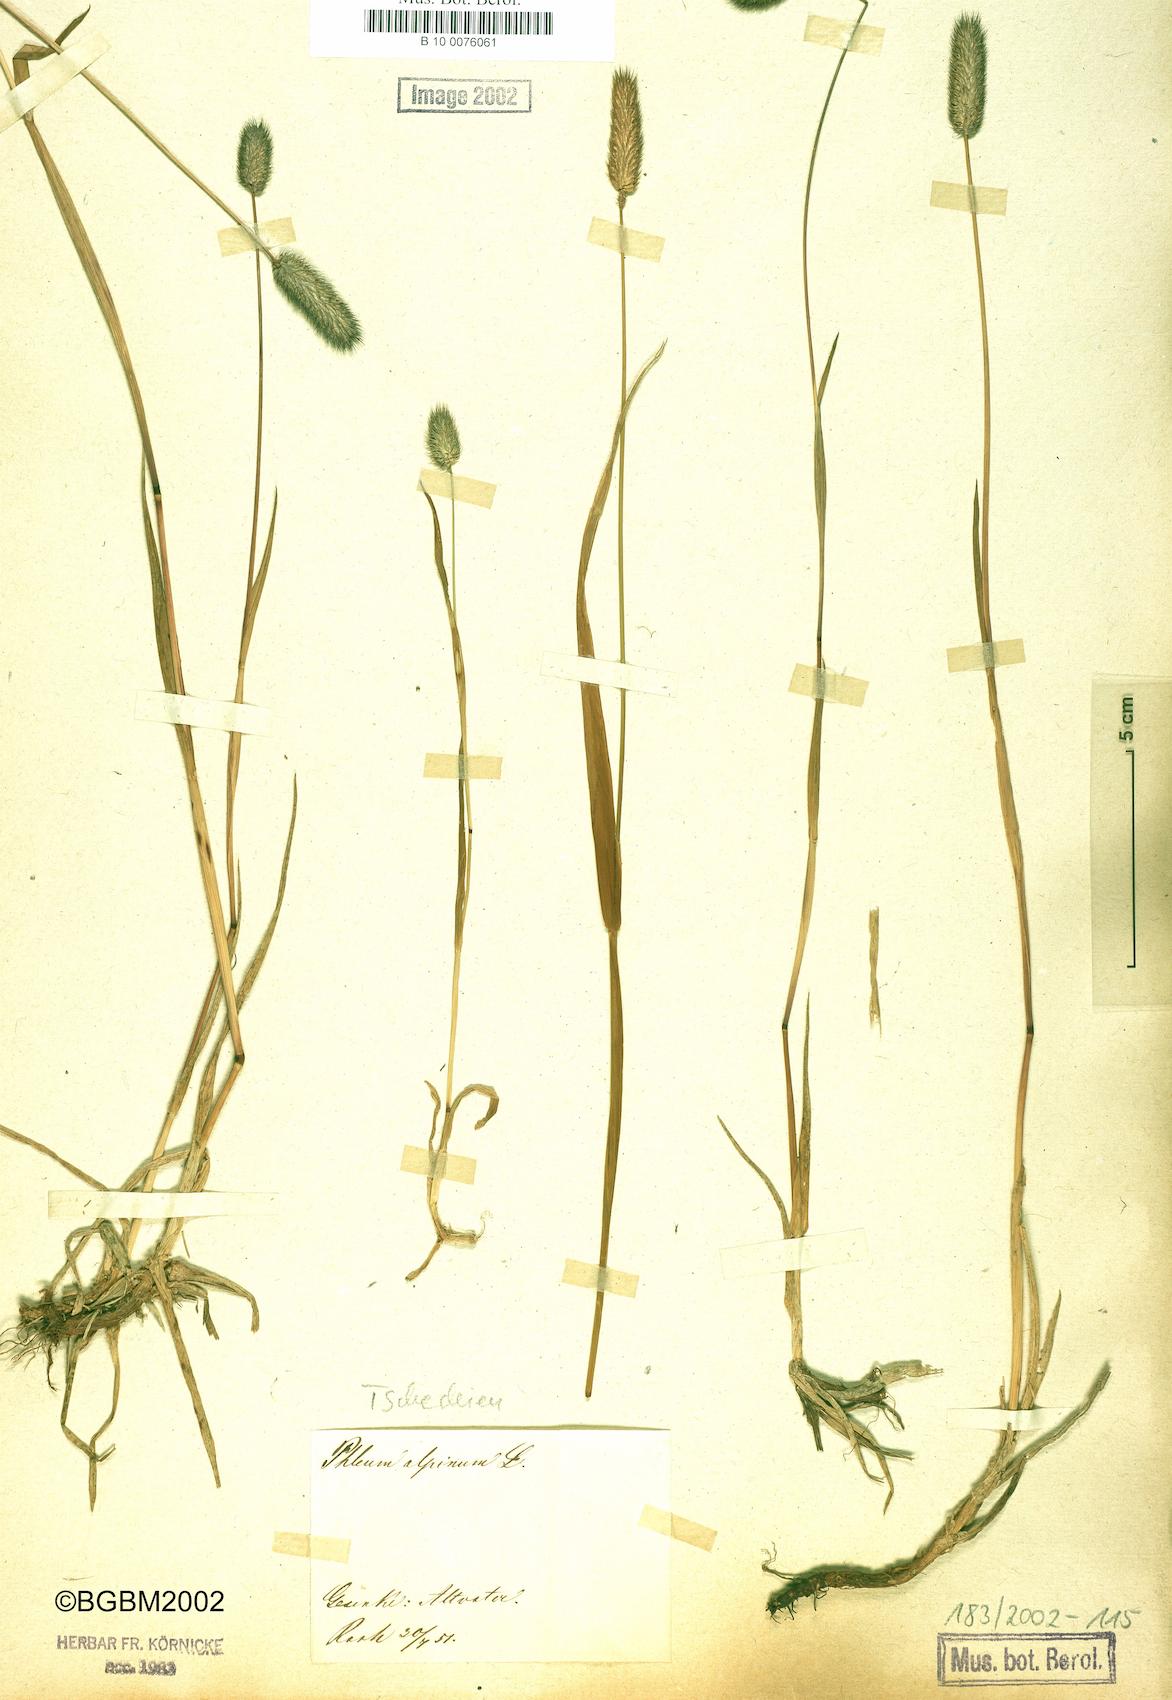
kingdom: Plantae
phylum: Tracheophyta
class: Liliopsida
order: Poales
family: Poaceae
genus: Phleum
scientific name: Phleum alpinum
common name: Alpine cat's-tail
